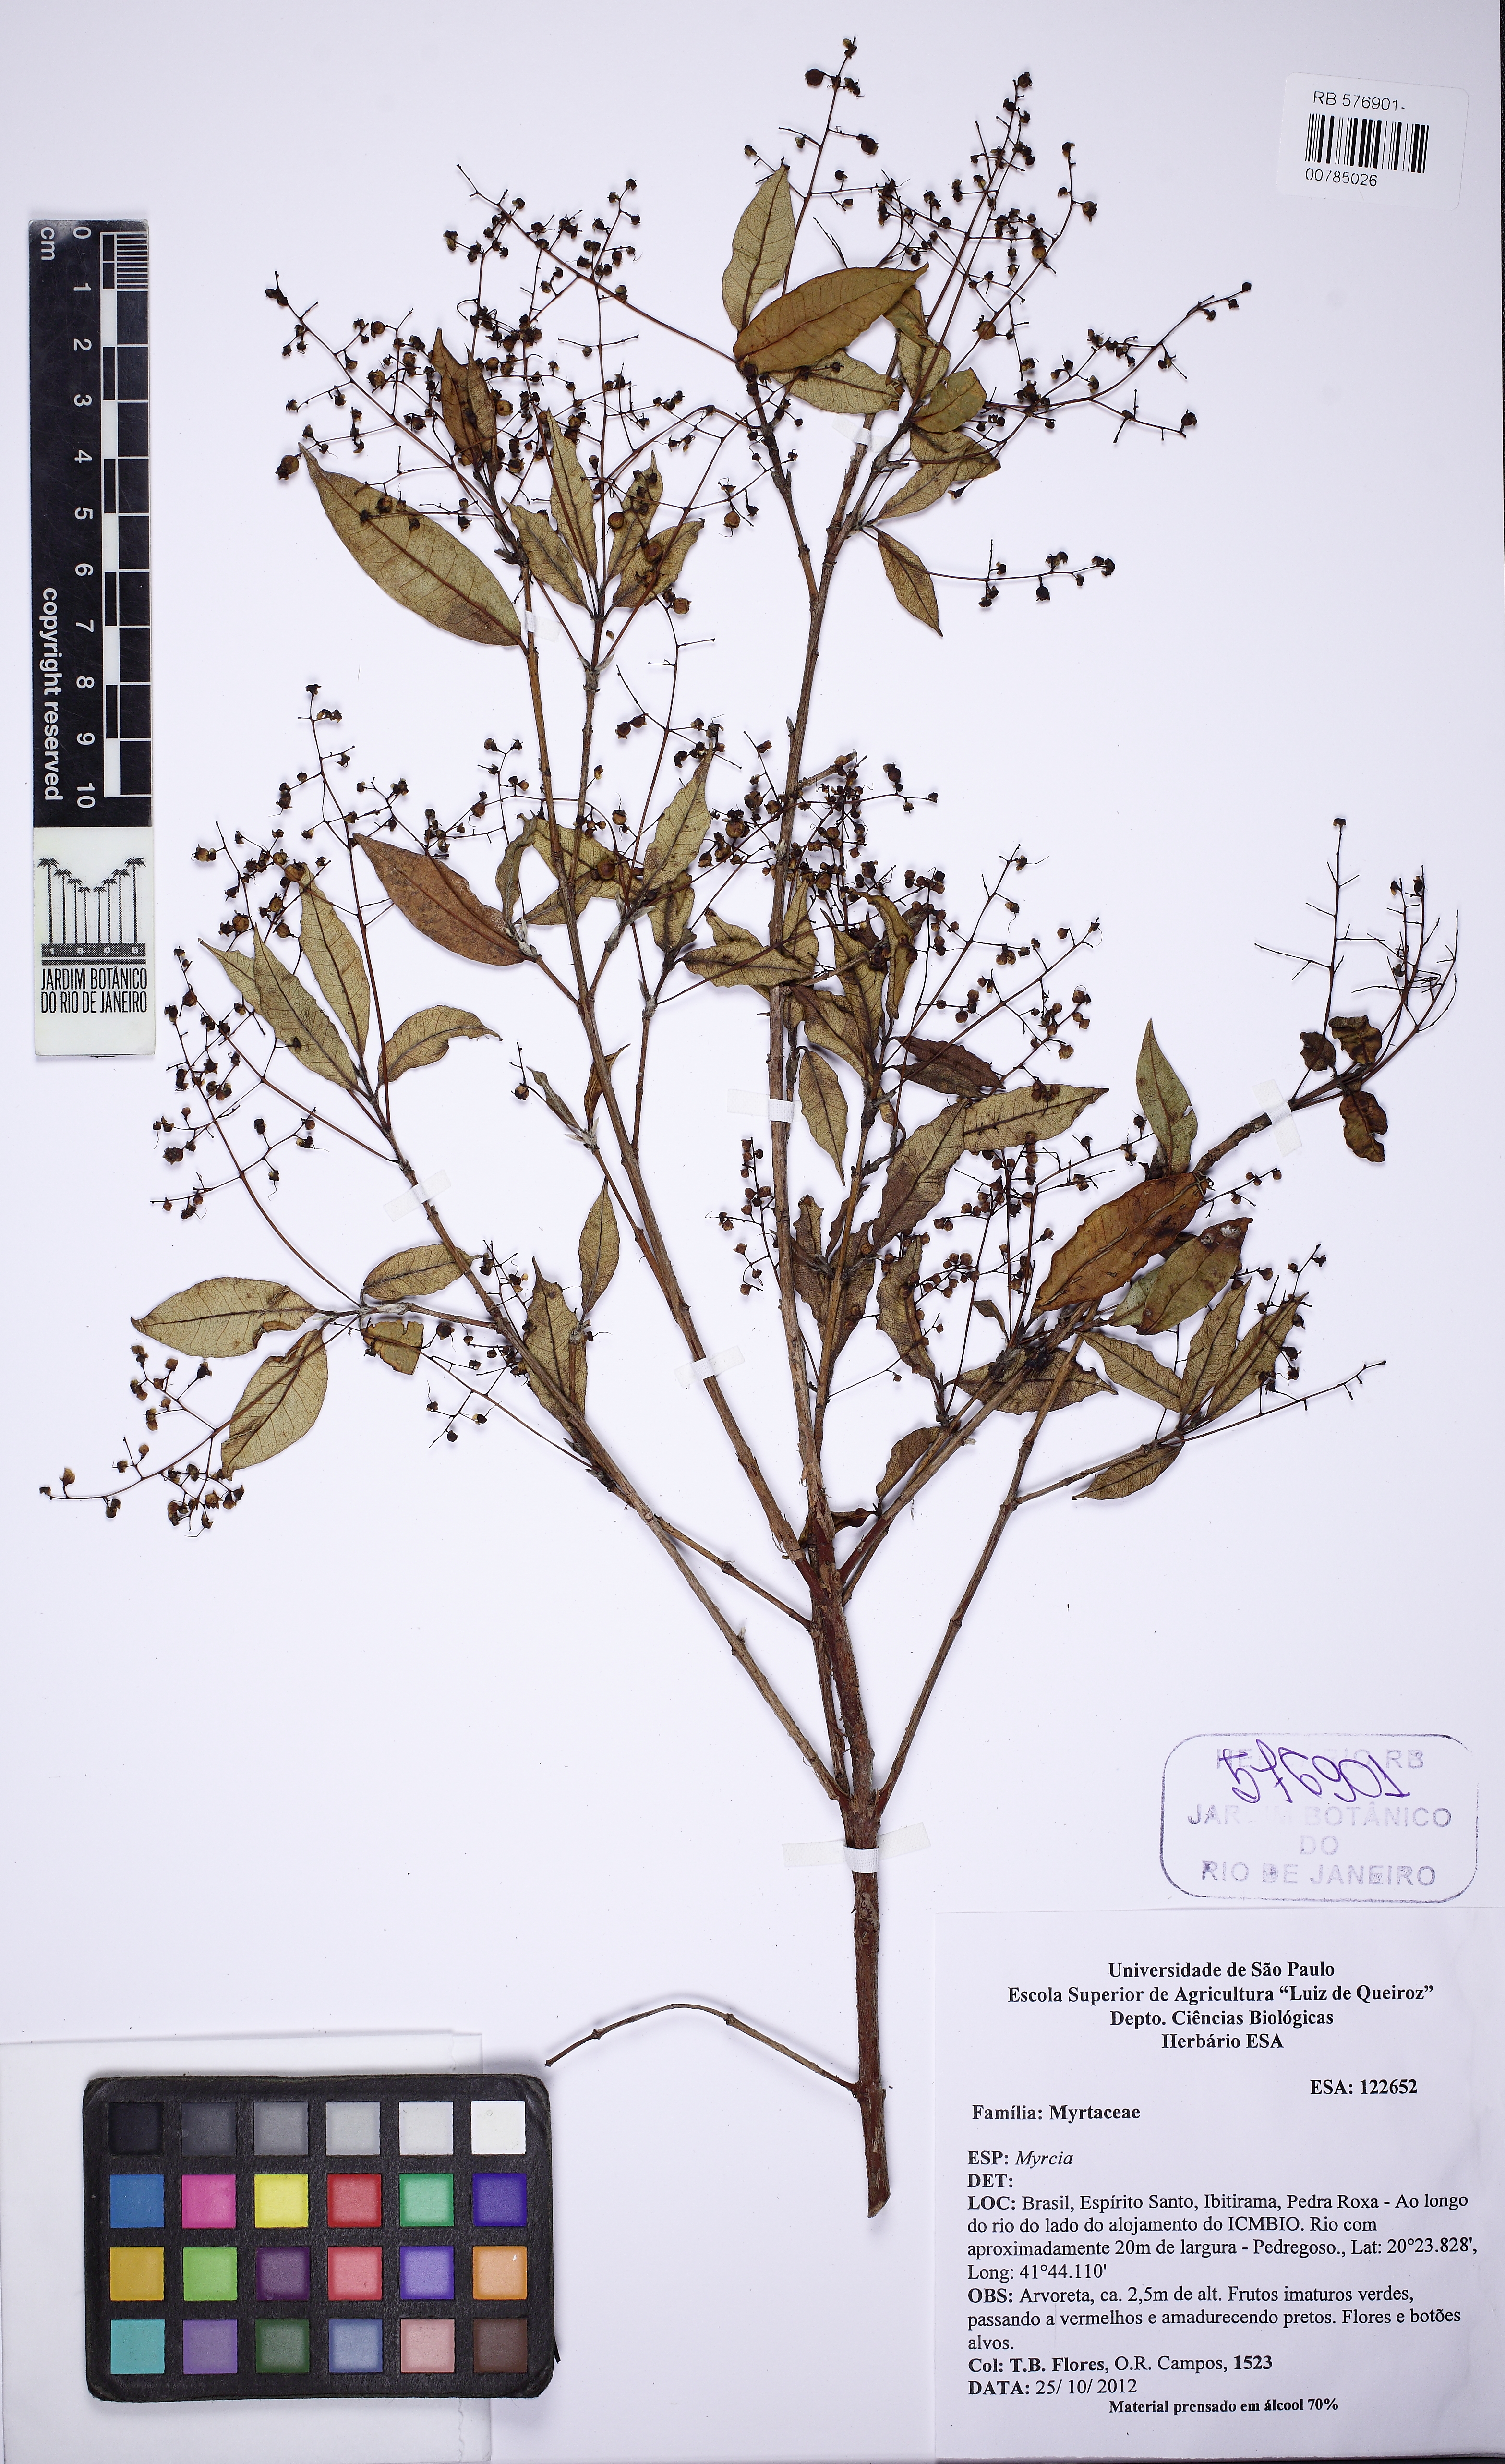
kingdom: Plantae
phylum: Tracheophyta
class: Magnoliopsida
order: Myrtales
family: Myrtaceae
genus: Myrcia
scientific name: Myrcia laruotteana
